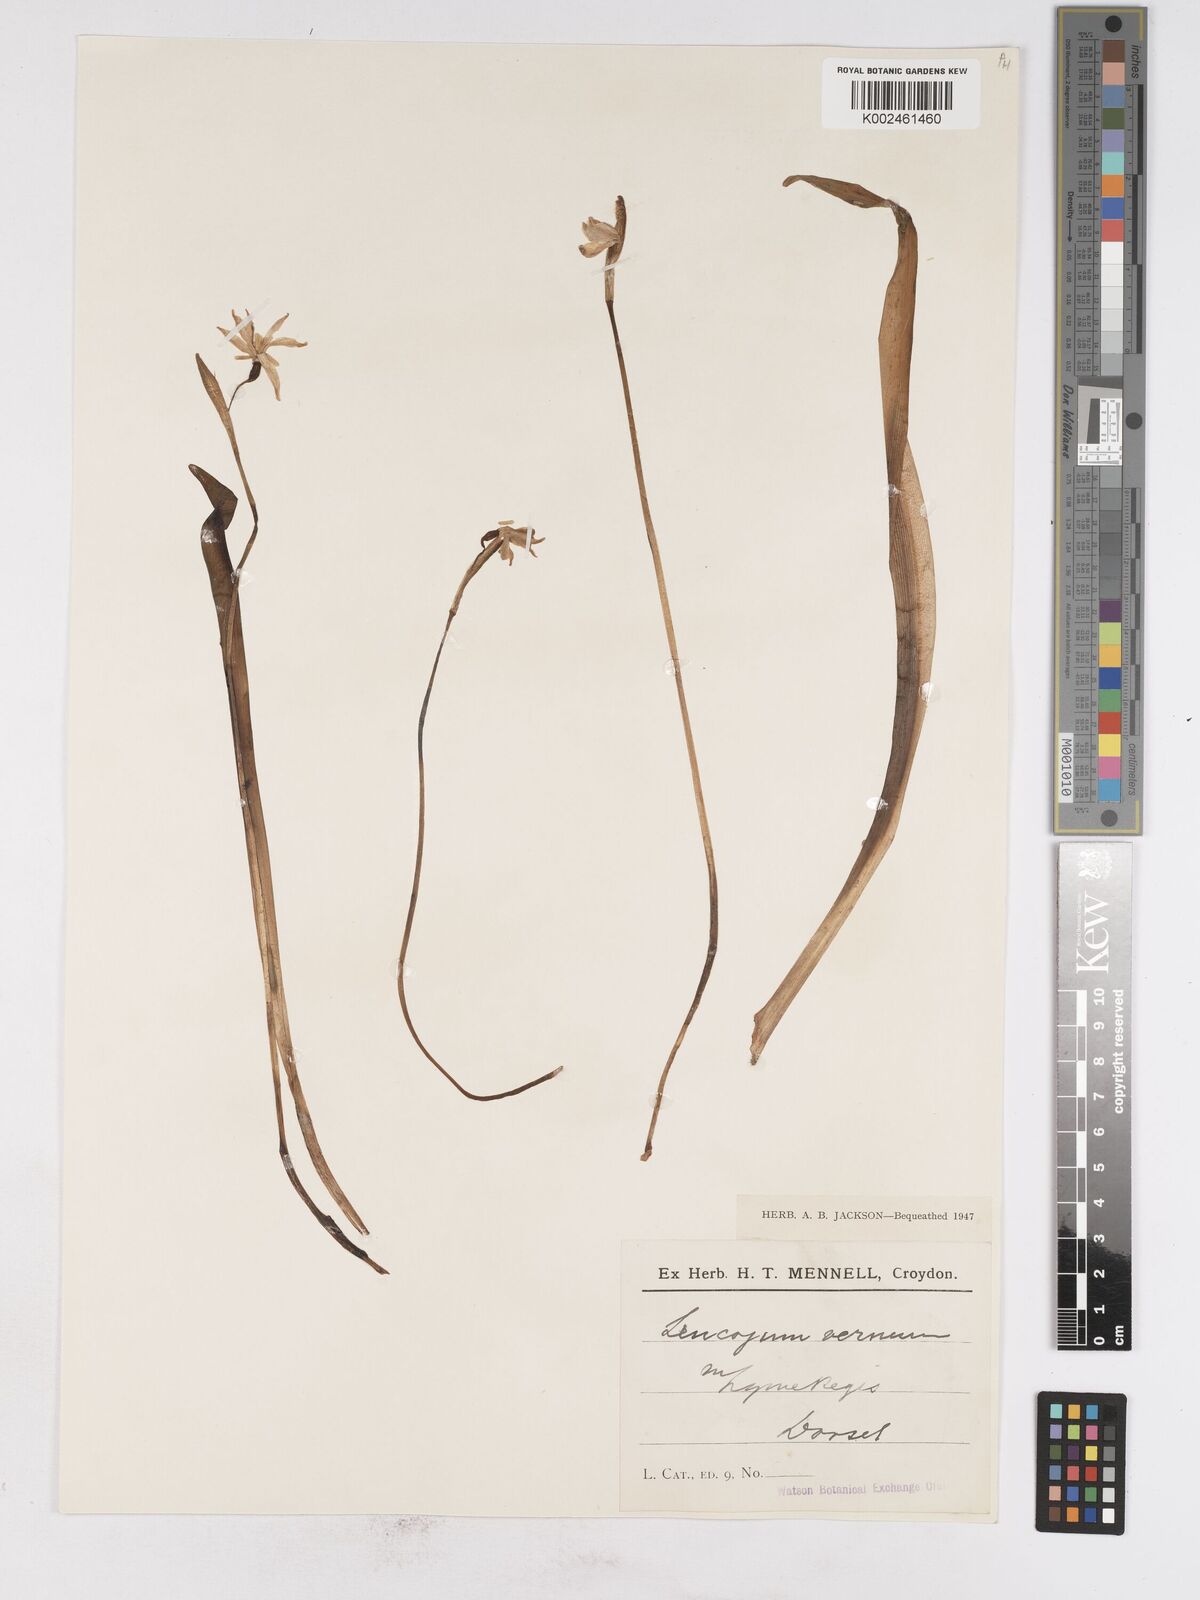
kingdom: Plantae
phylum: Tracheophyta
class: Liliopsida
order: Asparagales
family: Amaryllidaceae
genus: Leucojum
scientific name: Leucojum vernum
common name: Spring snowflake
